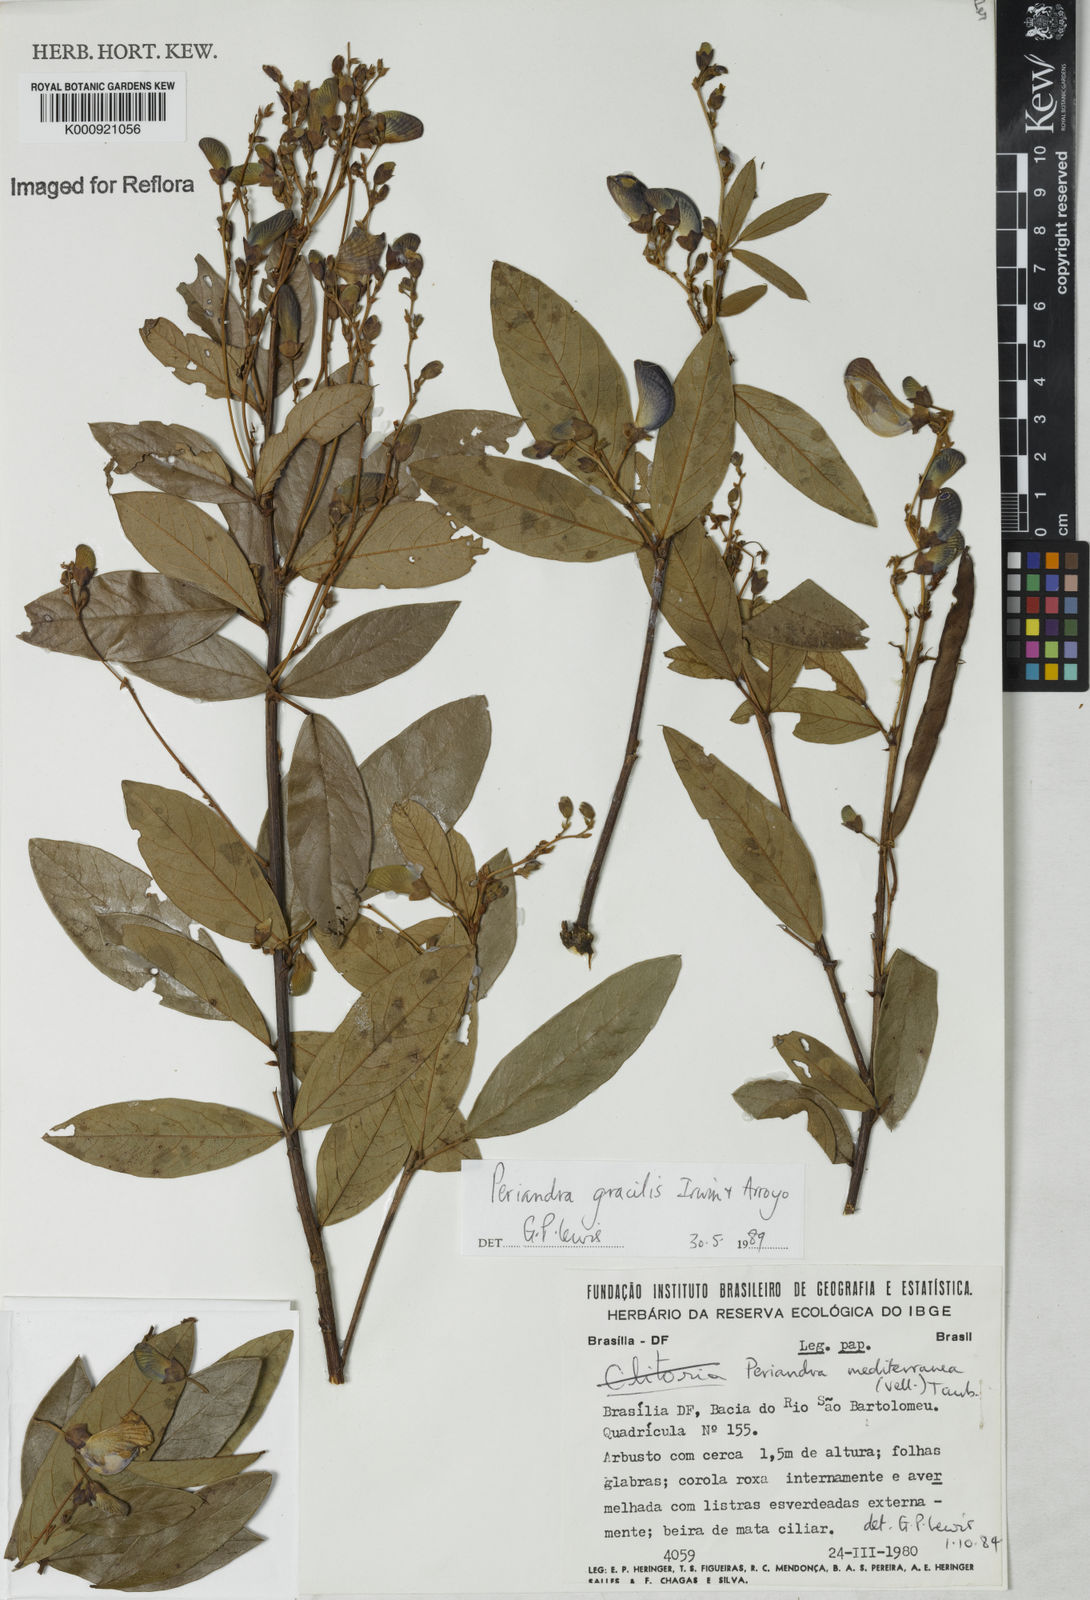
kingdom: Plantae
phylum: Tracheophyta
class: Magnoliopsida
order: Fabales
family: Fabaceae
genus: Periandra
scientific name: Periandra gracilis
